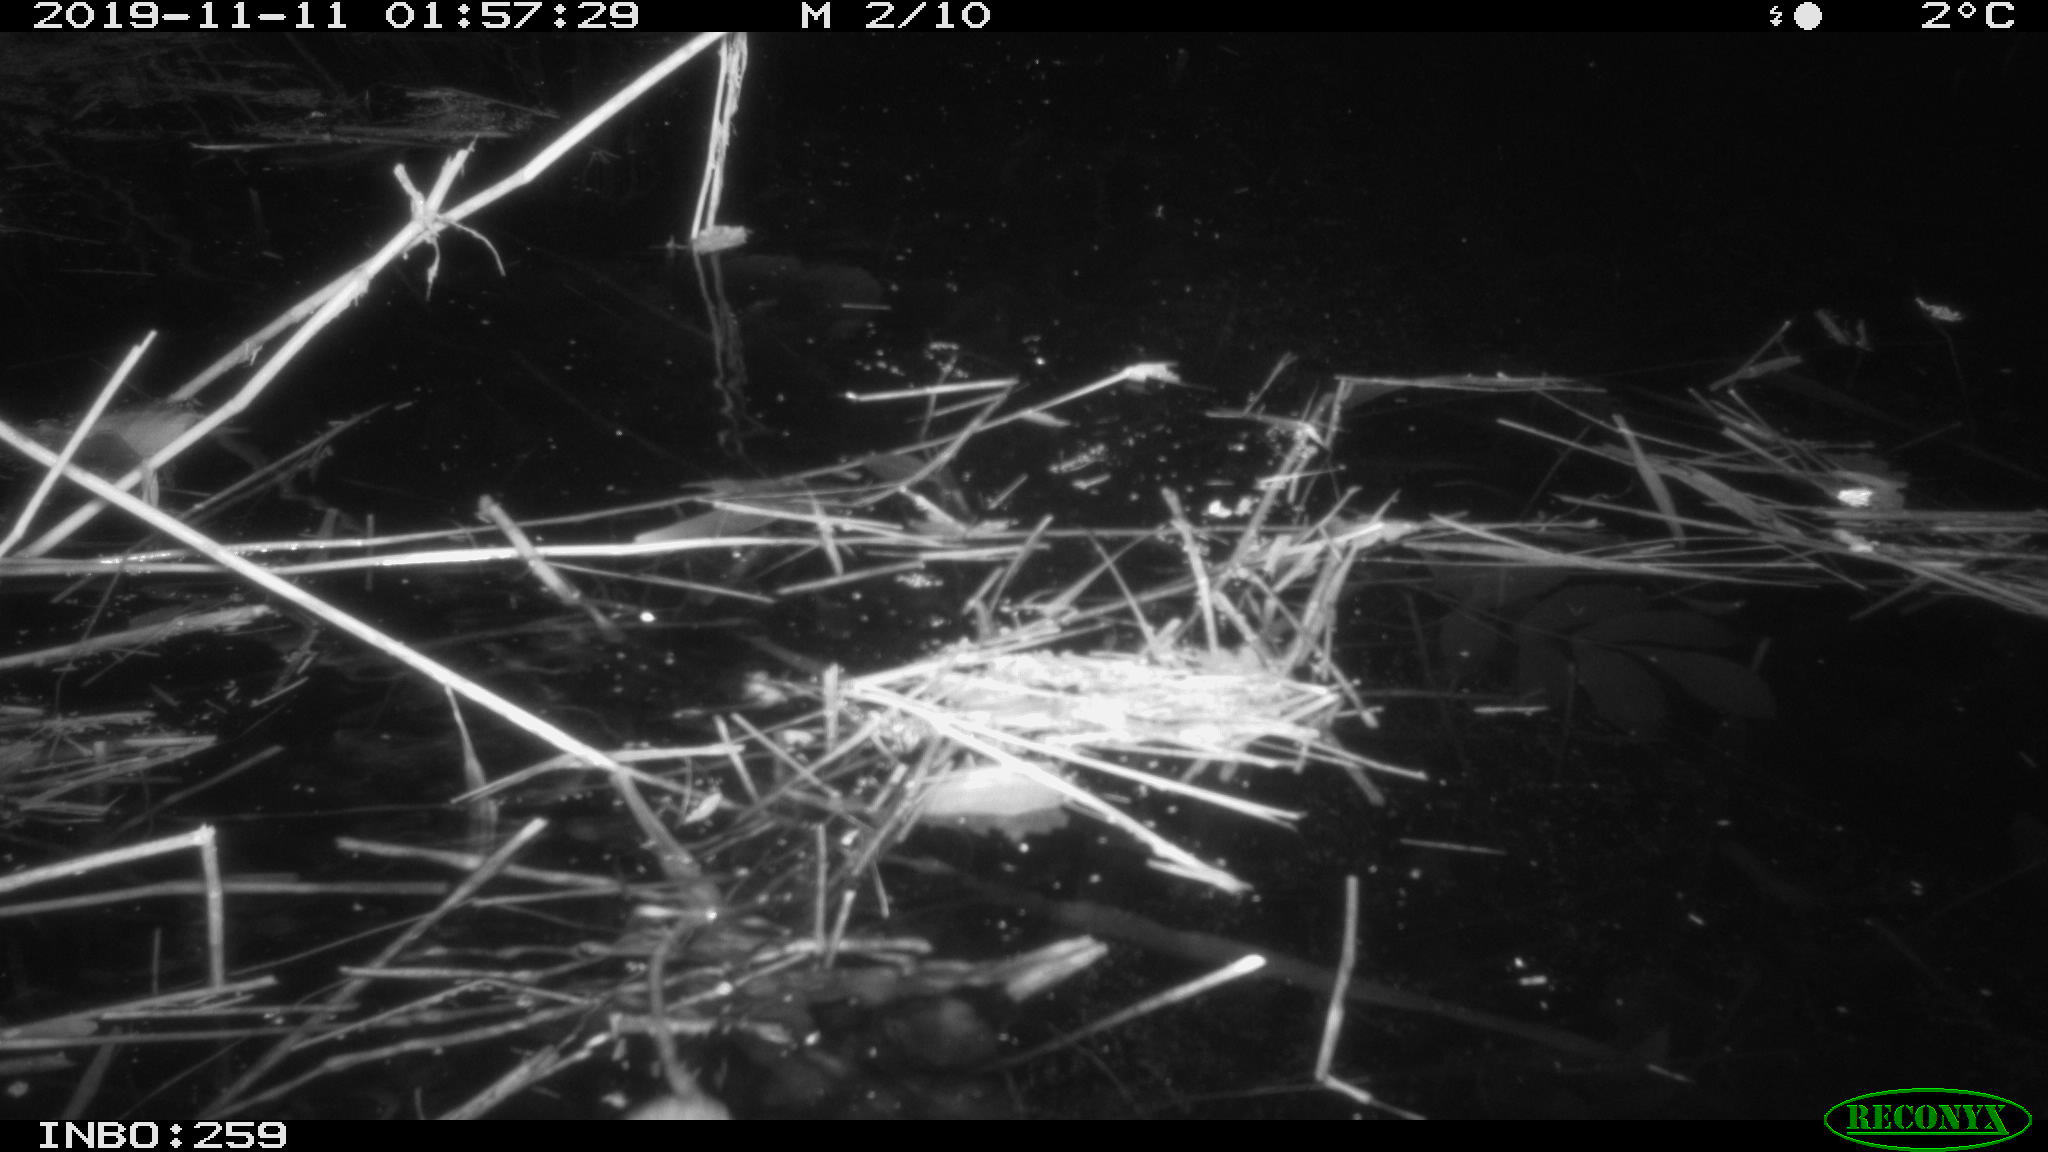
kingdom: Animalia
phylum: Chordata
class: Mammalia
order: Rodentia
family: Muridae
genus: Rattus
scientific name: Rattus norvegicus
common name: Brown rat
